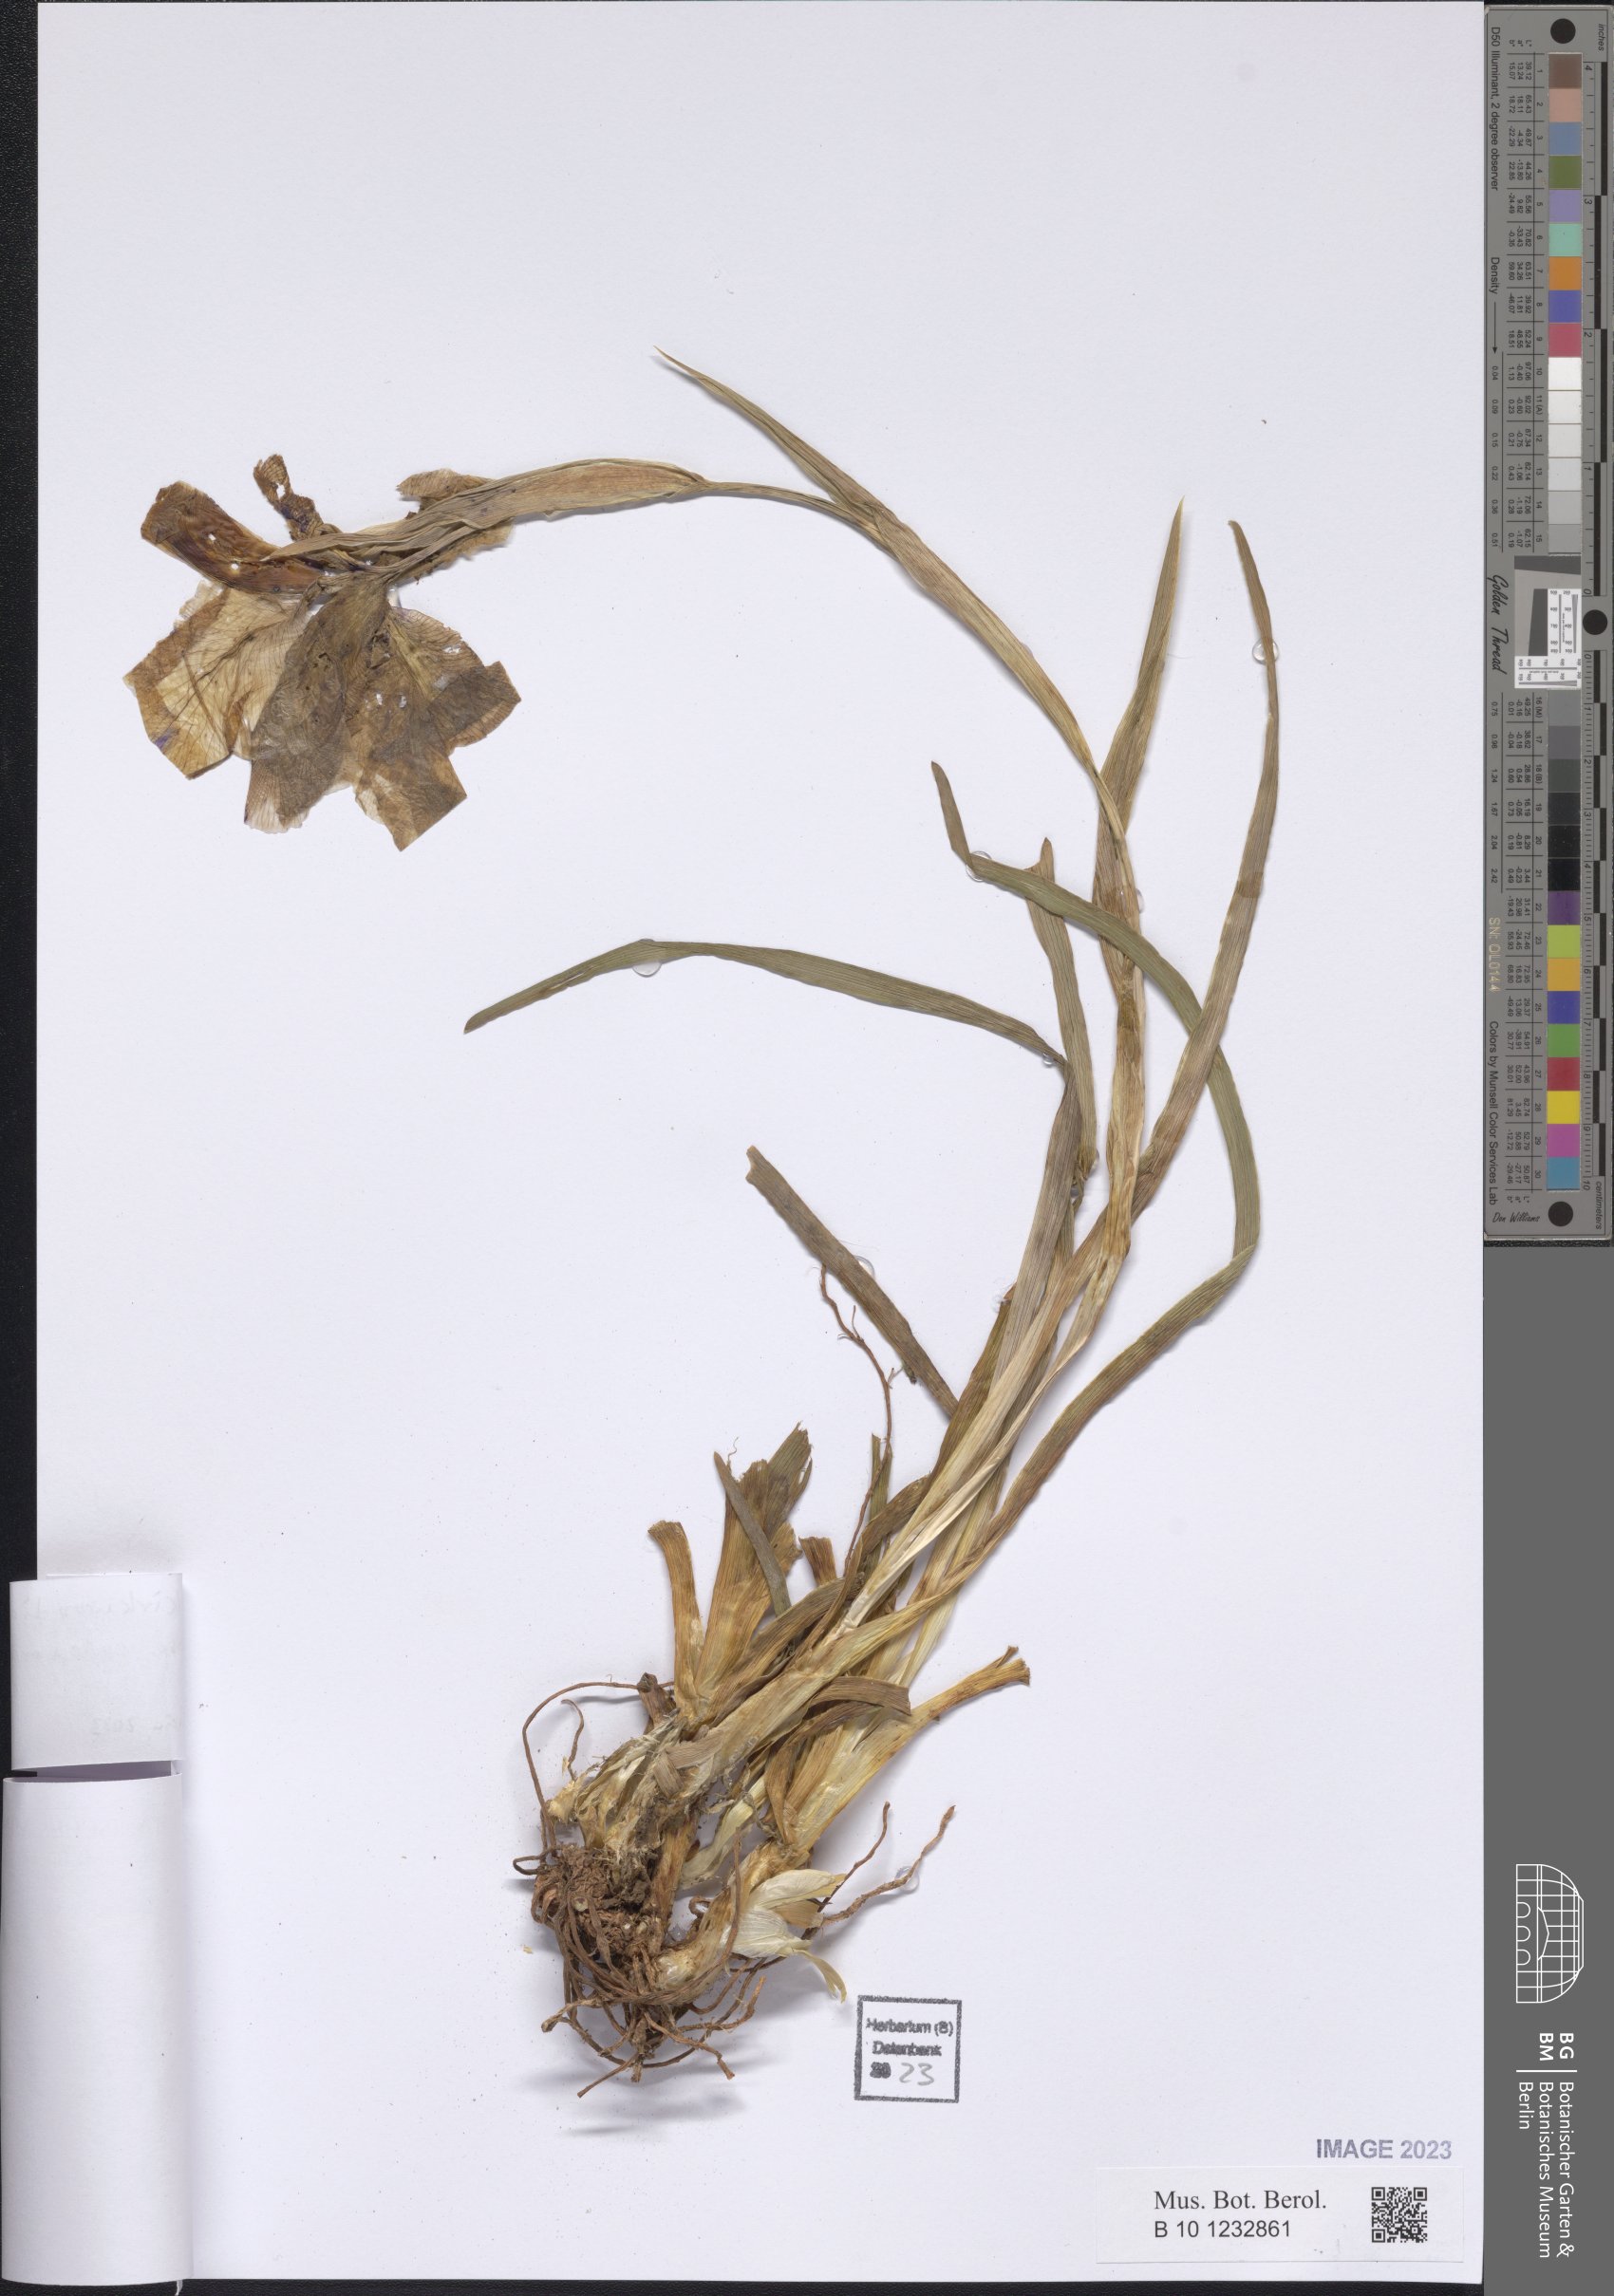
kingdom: Plantae
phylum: Tracheophyta
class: Liliopsida
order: Asparagales
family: Iridaceae
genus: Iris
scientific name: Iris kirkwoodiae
